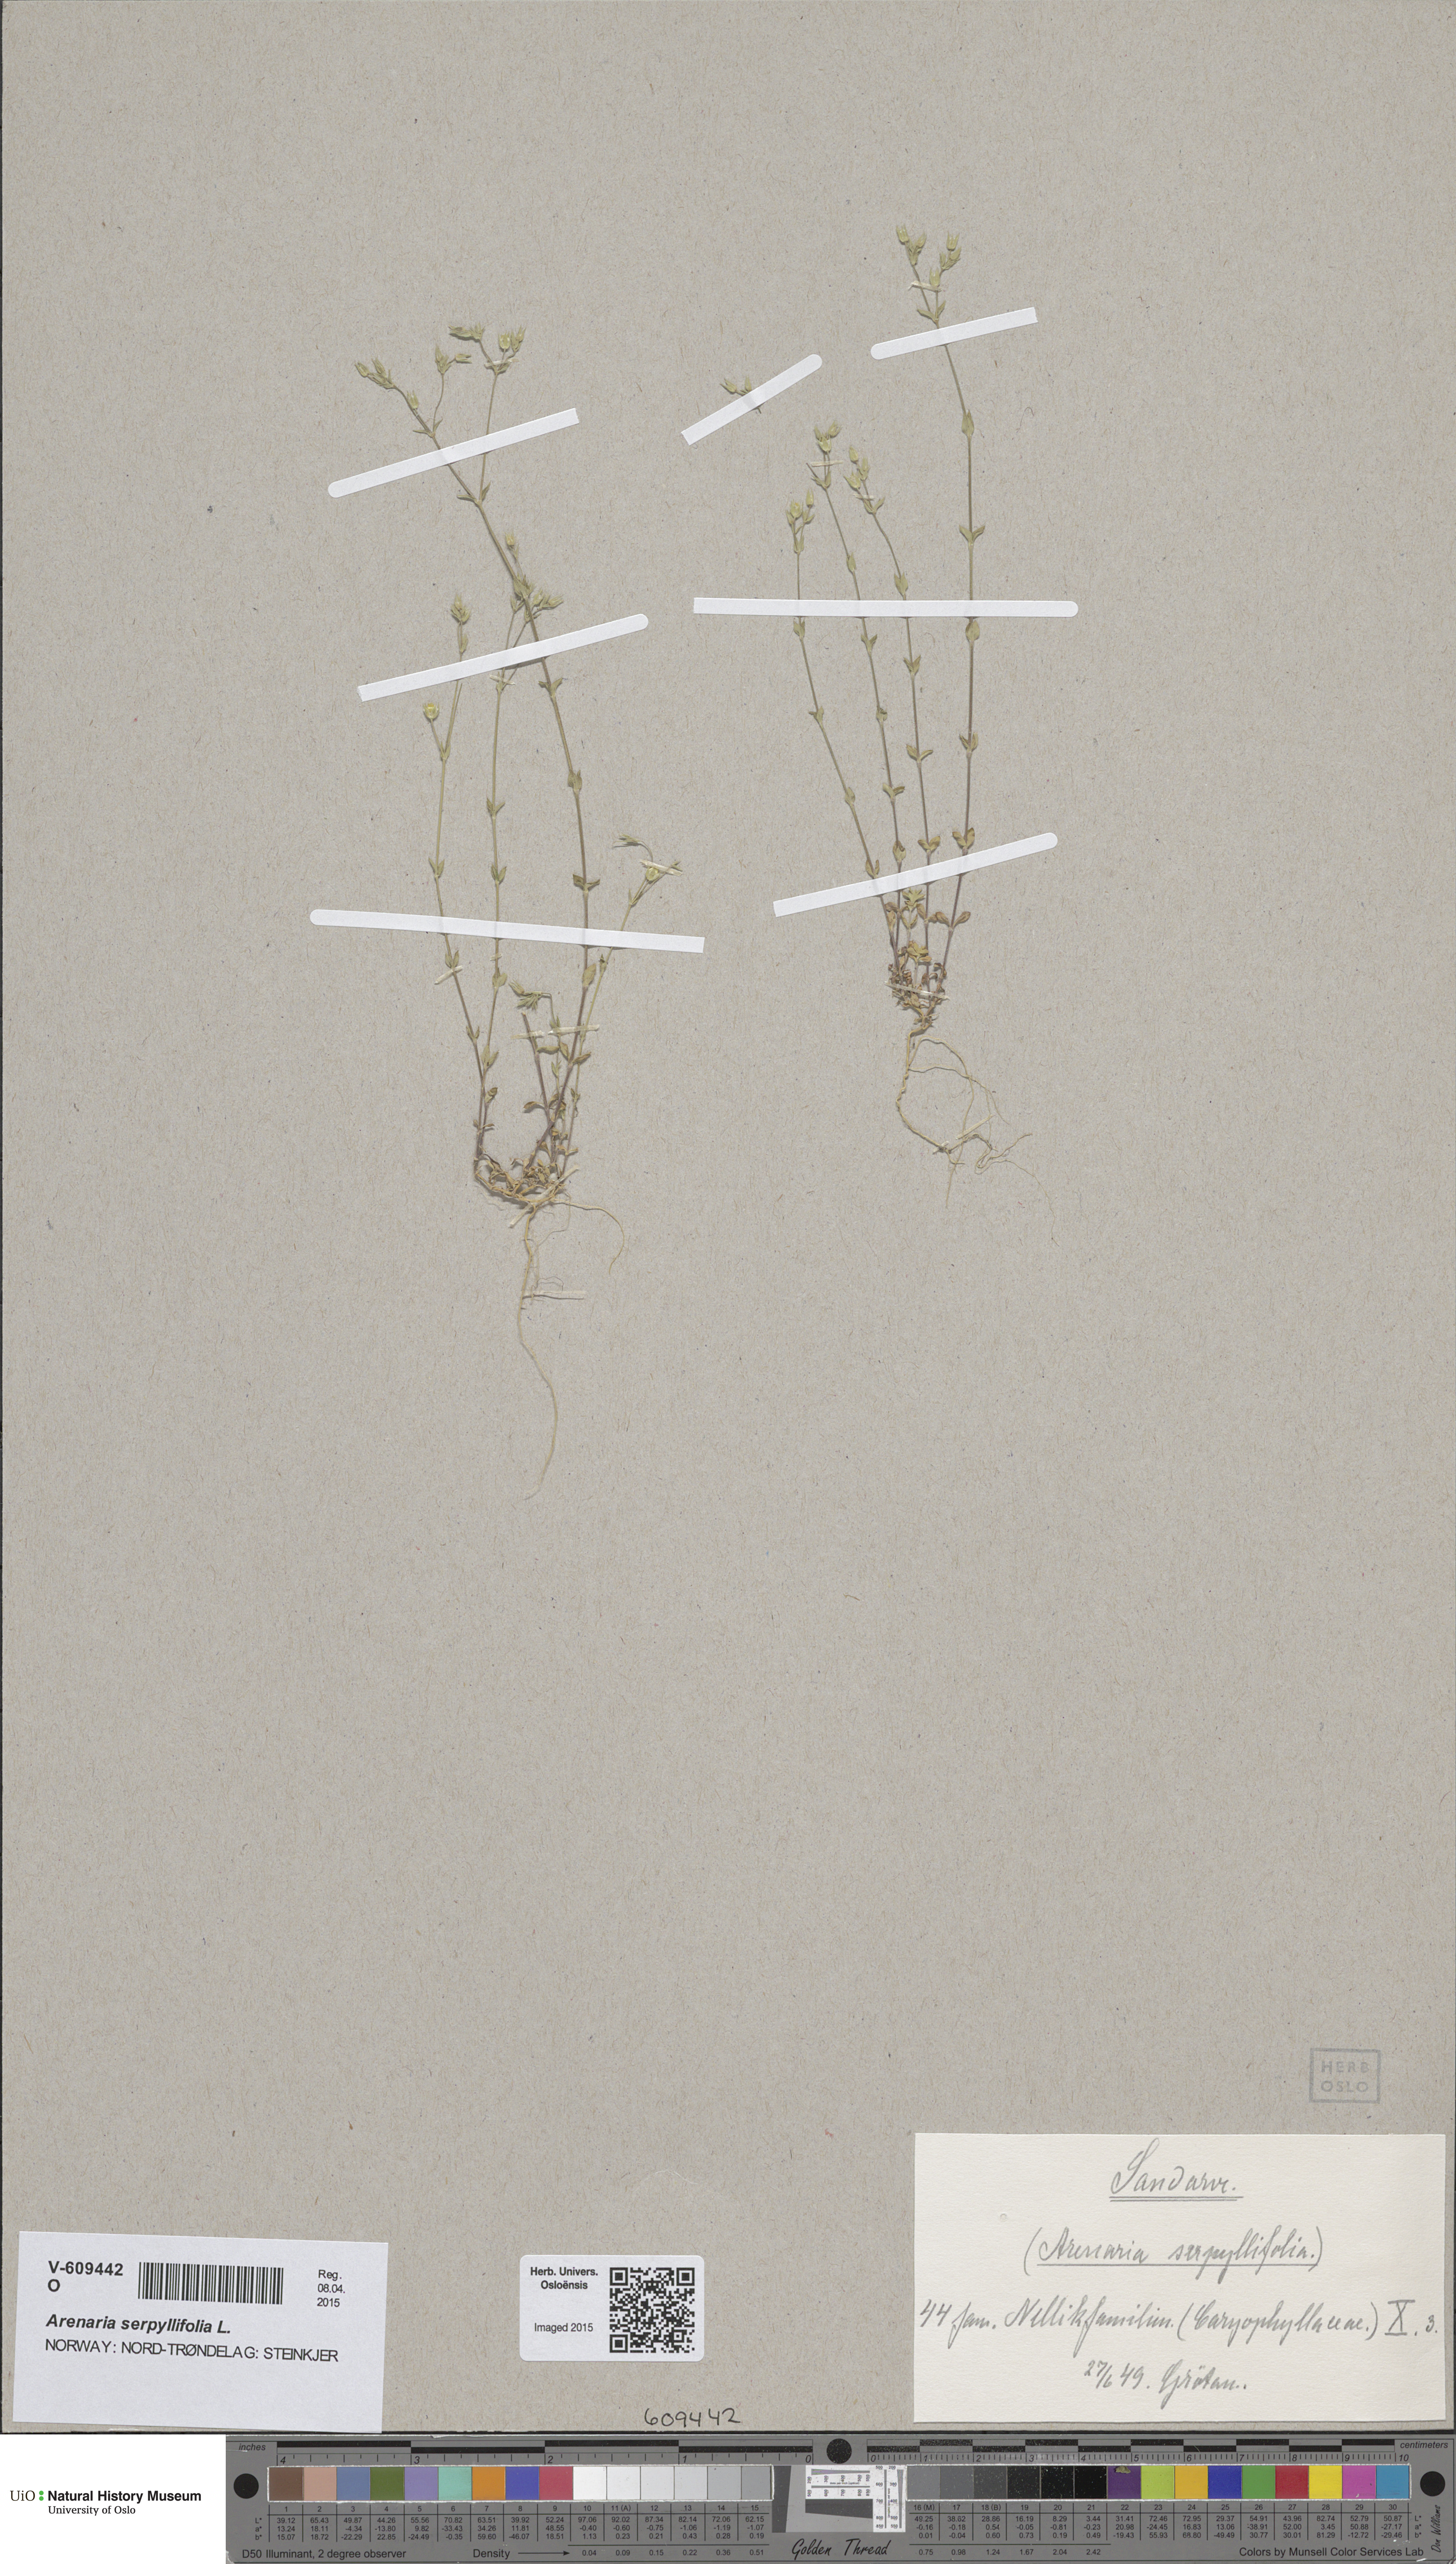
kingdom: Plantae
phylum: Tracheophyta
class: Magnoliopsida
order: Caryophyllales
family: Caryophyllaceae
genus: Arenaria
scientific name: Arenaria serpyllifolia
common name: Thyme-leaved sandwort
